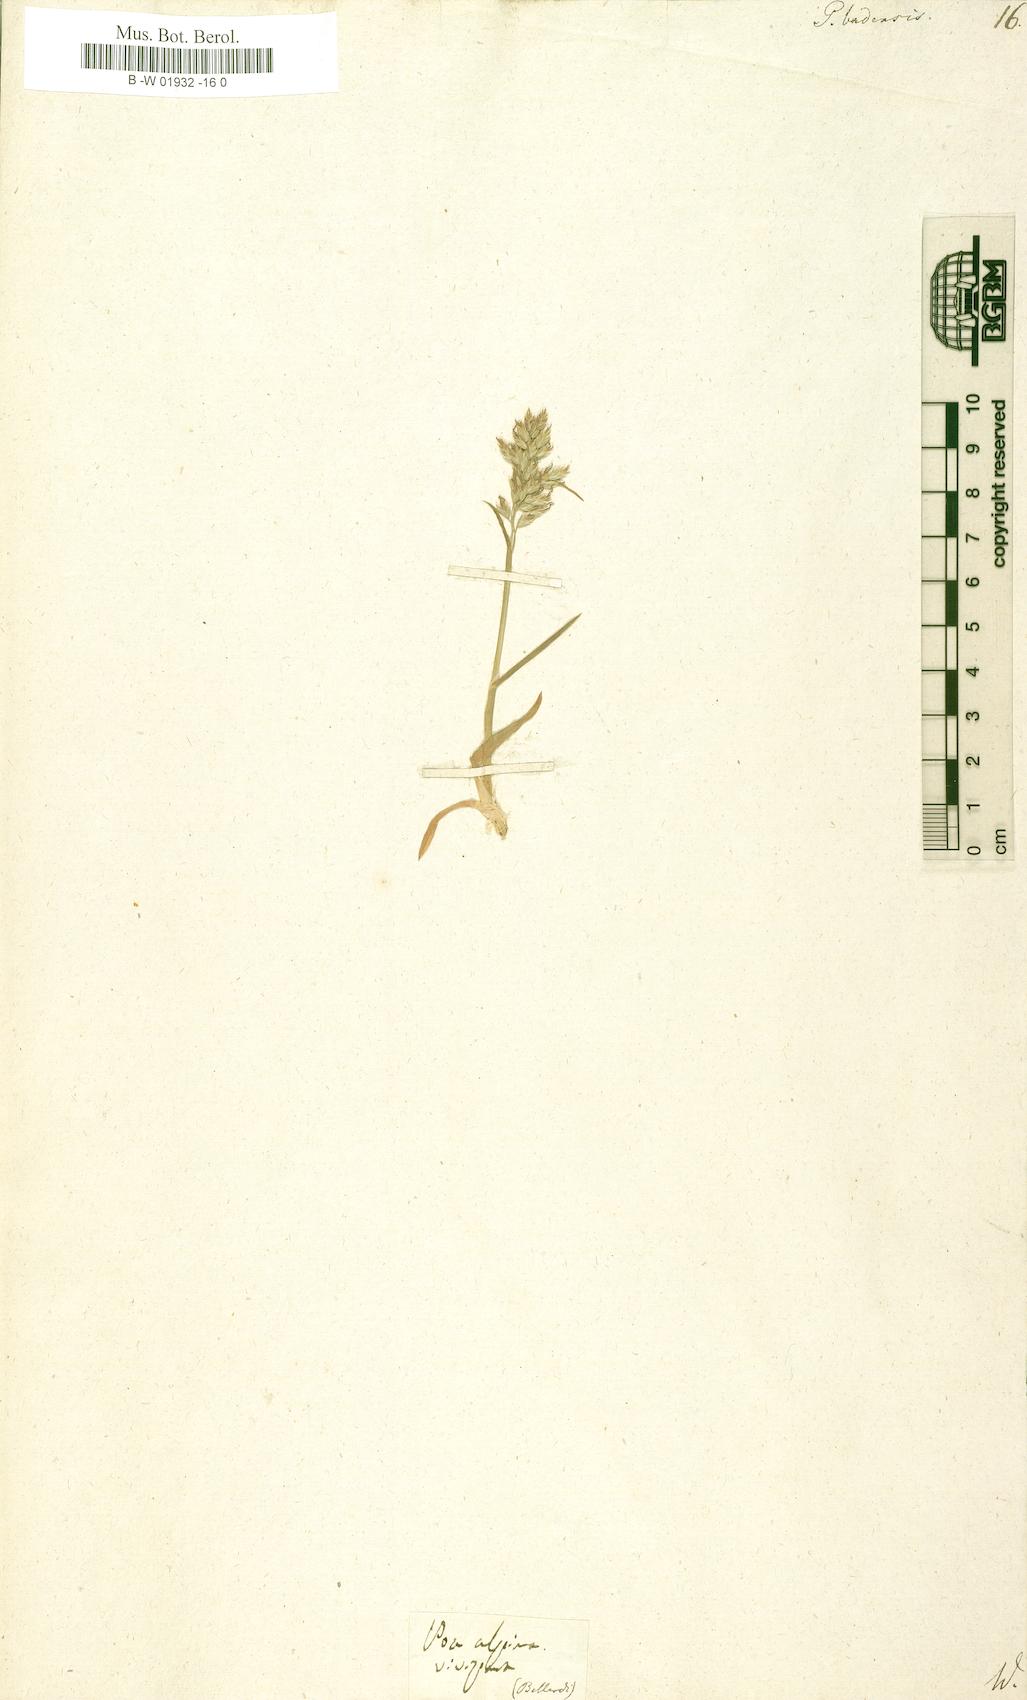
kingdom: Plantae
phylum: Tracheophyta
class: Liliopsida
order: Poales
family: Poaceae
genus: Poa
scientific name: Poa badensis
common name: Baden's bluegrass
